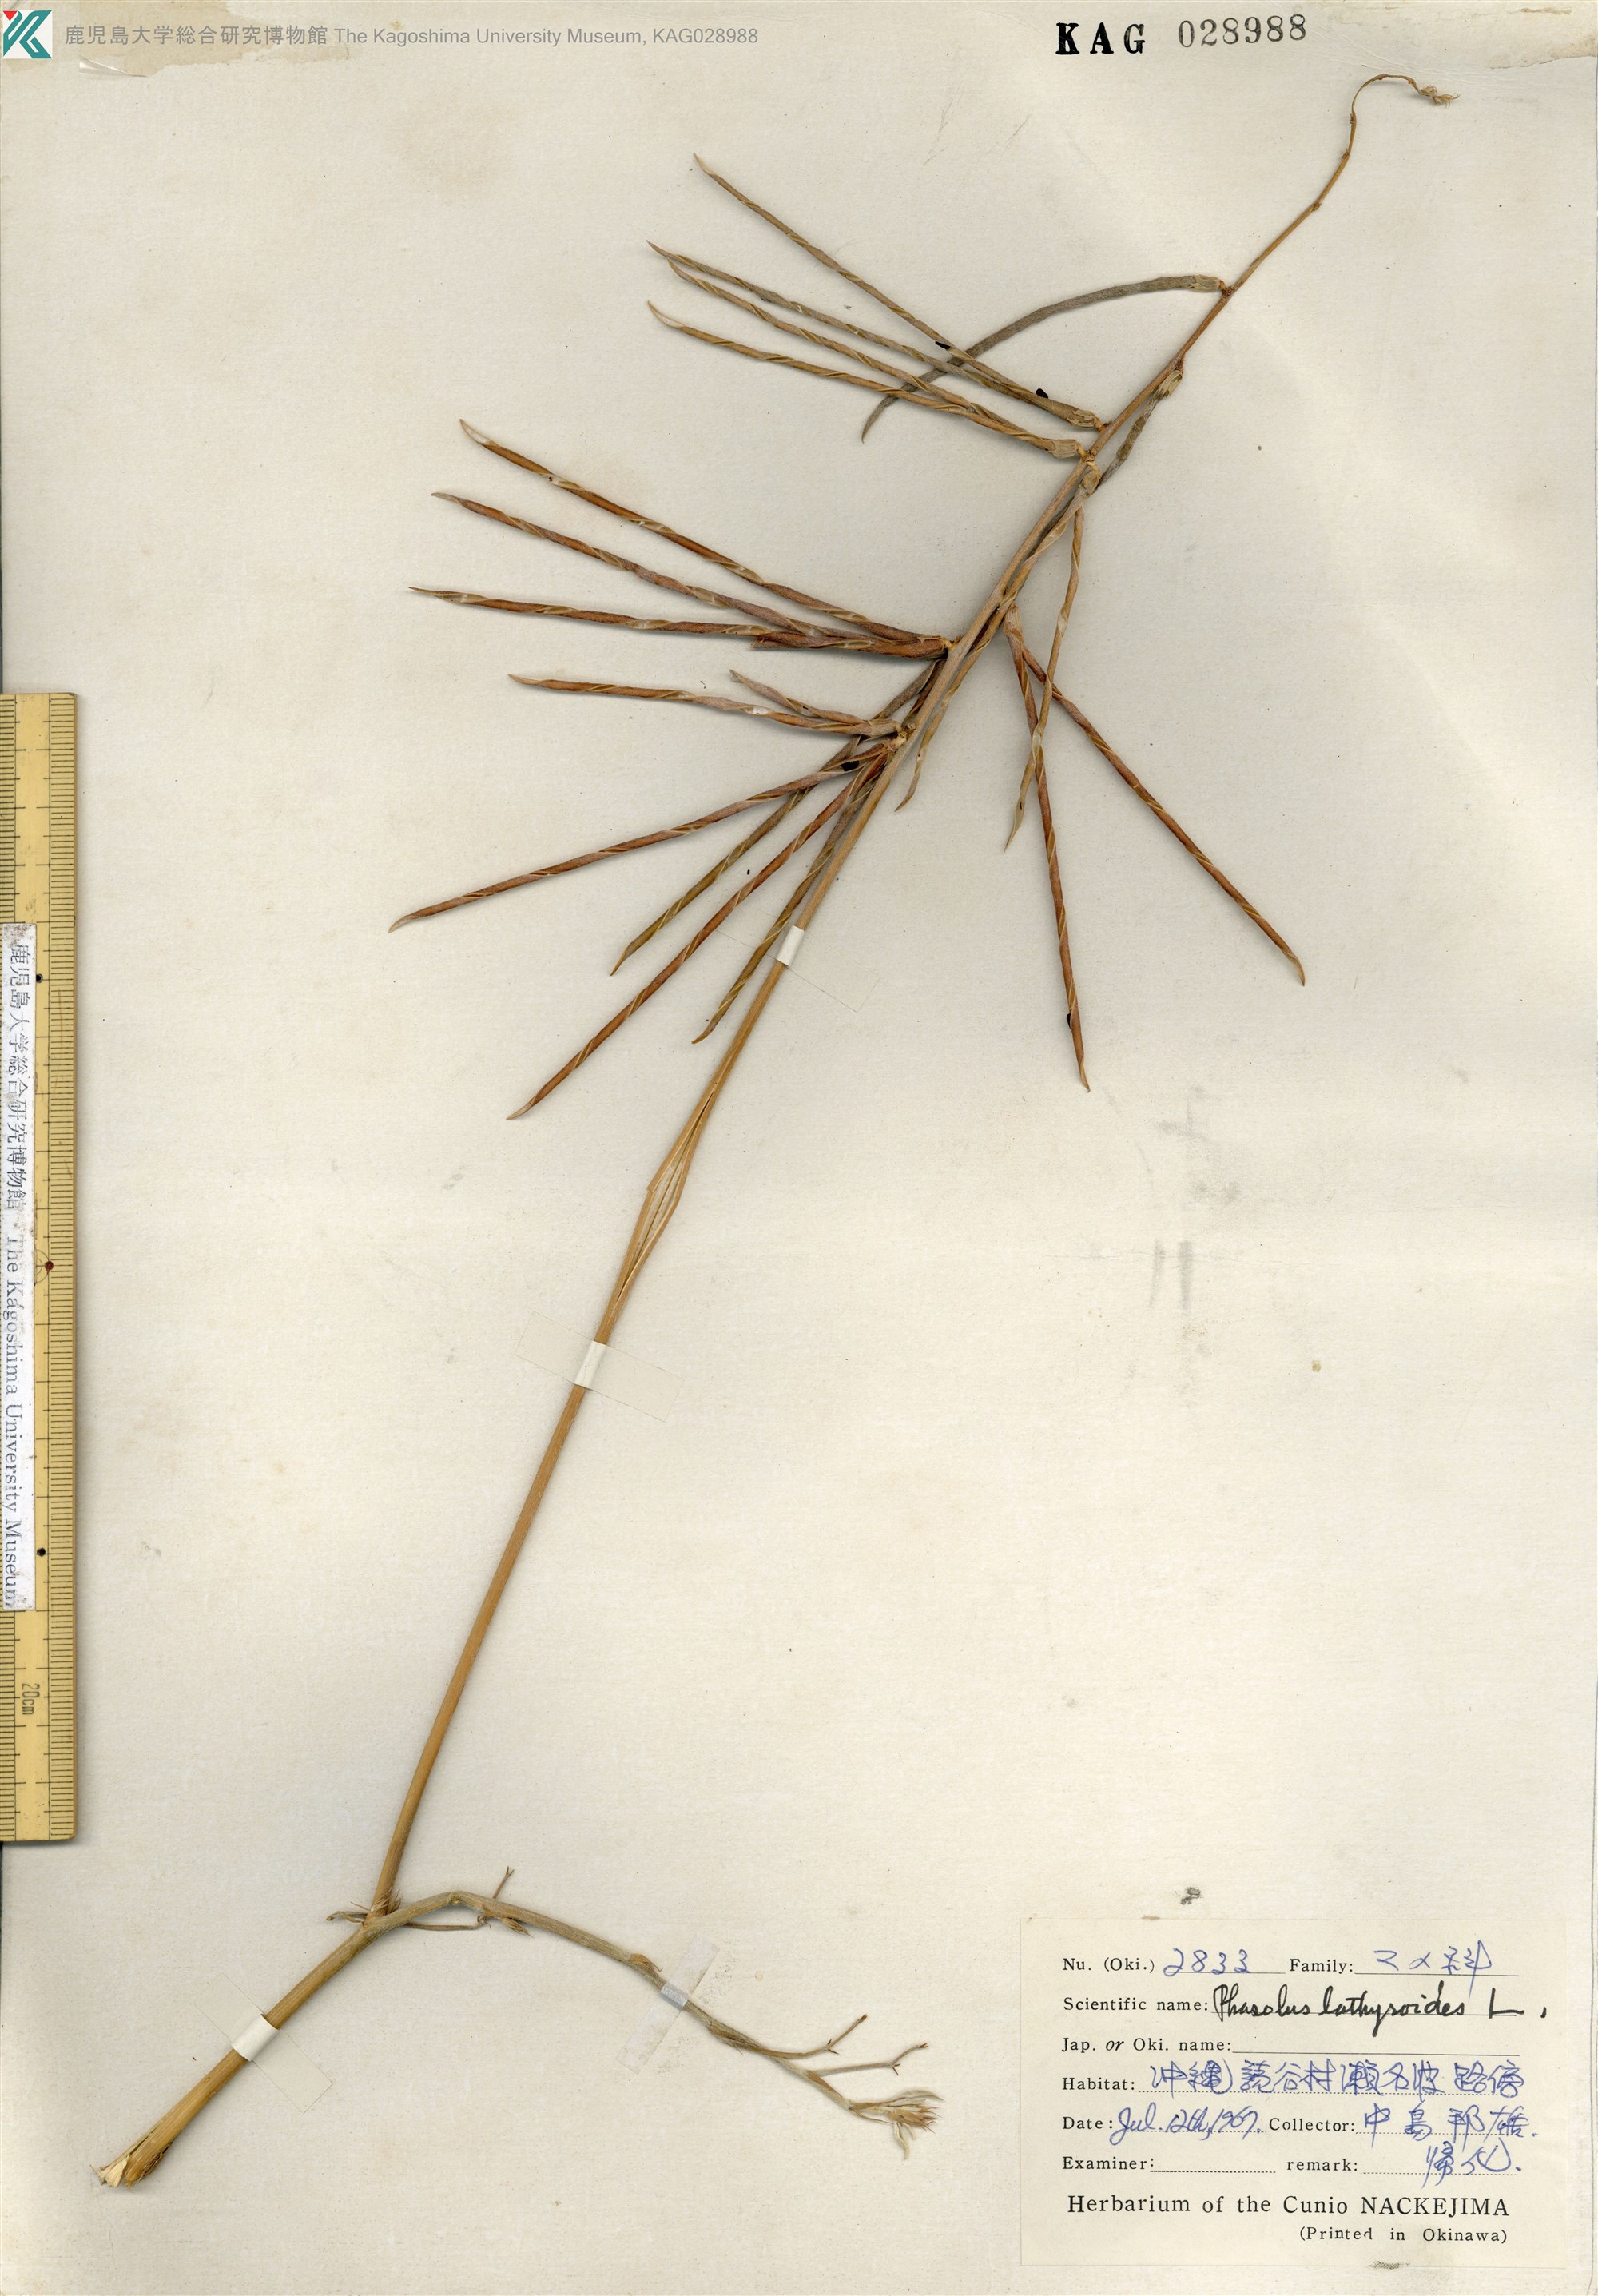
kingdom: Plantae
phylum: Tracheophyta
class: Magnoliopsida
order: Fabales
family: Fabaceae
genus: Macroptilium
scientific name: Macroptilium lathyroides
